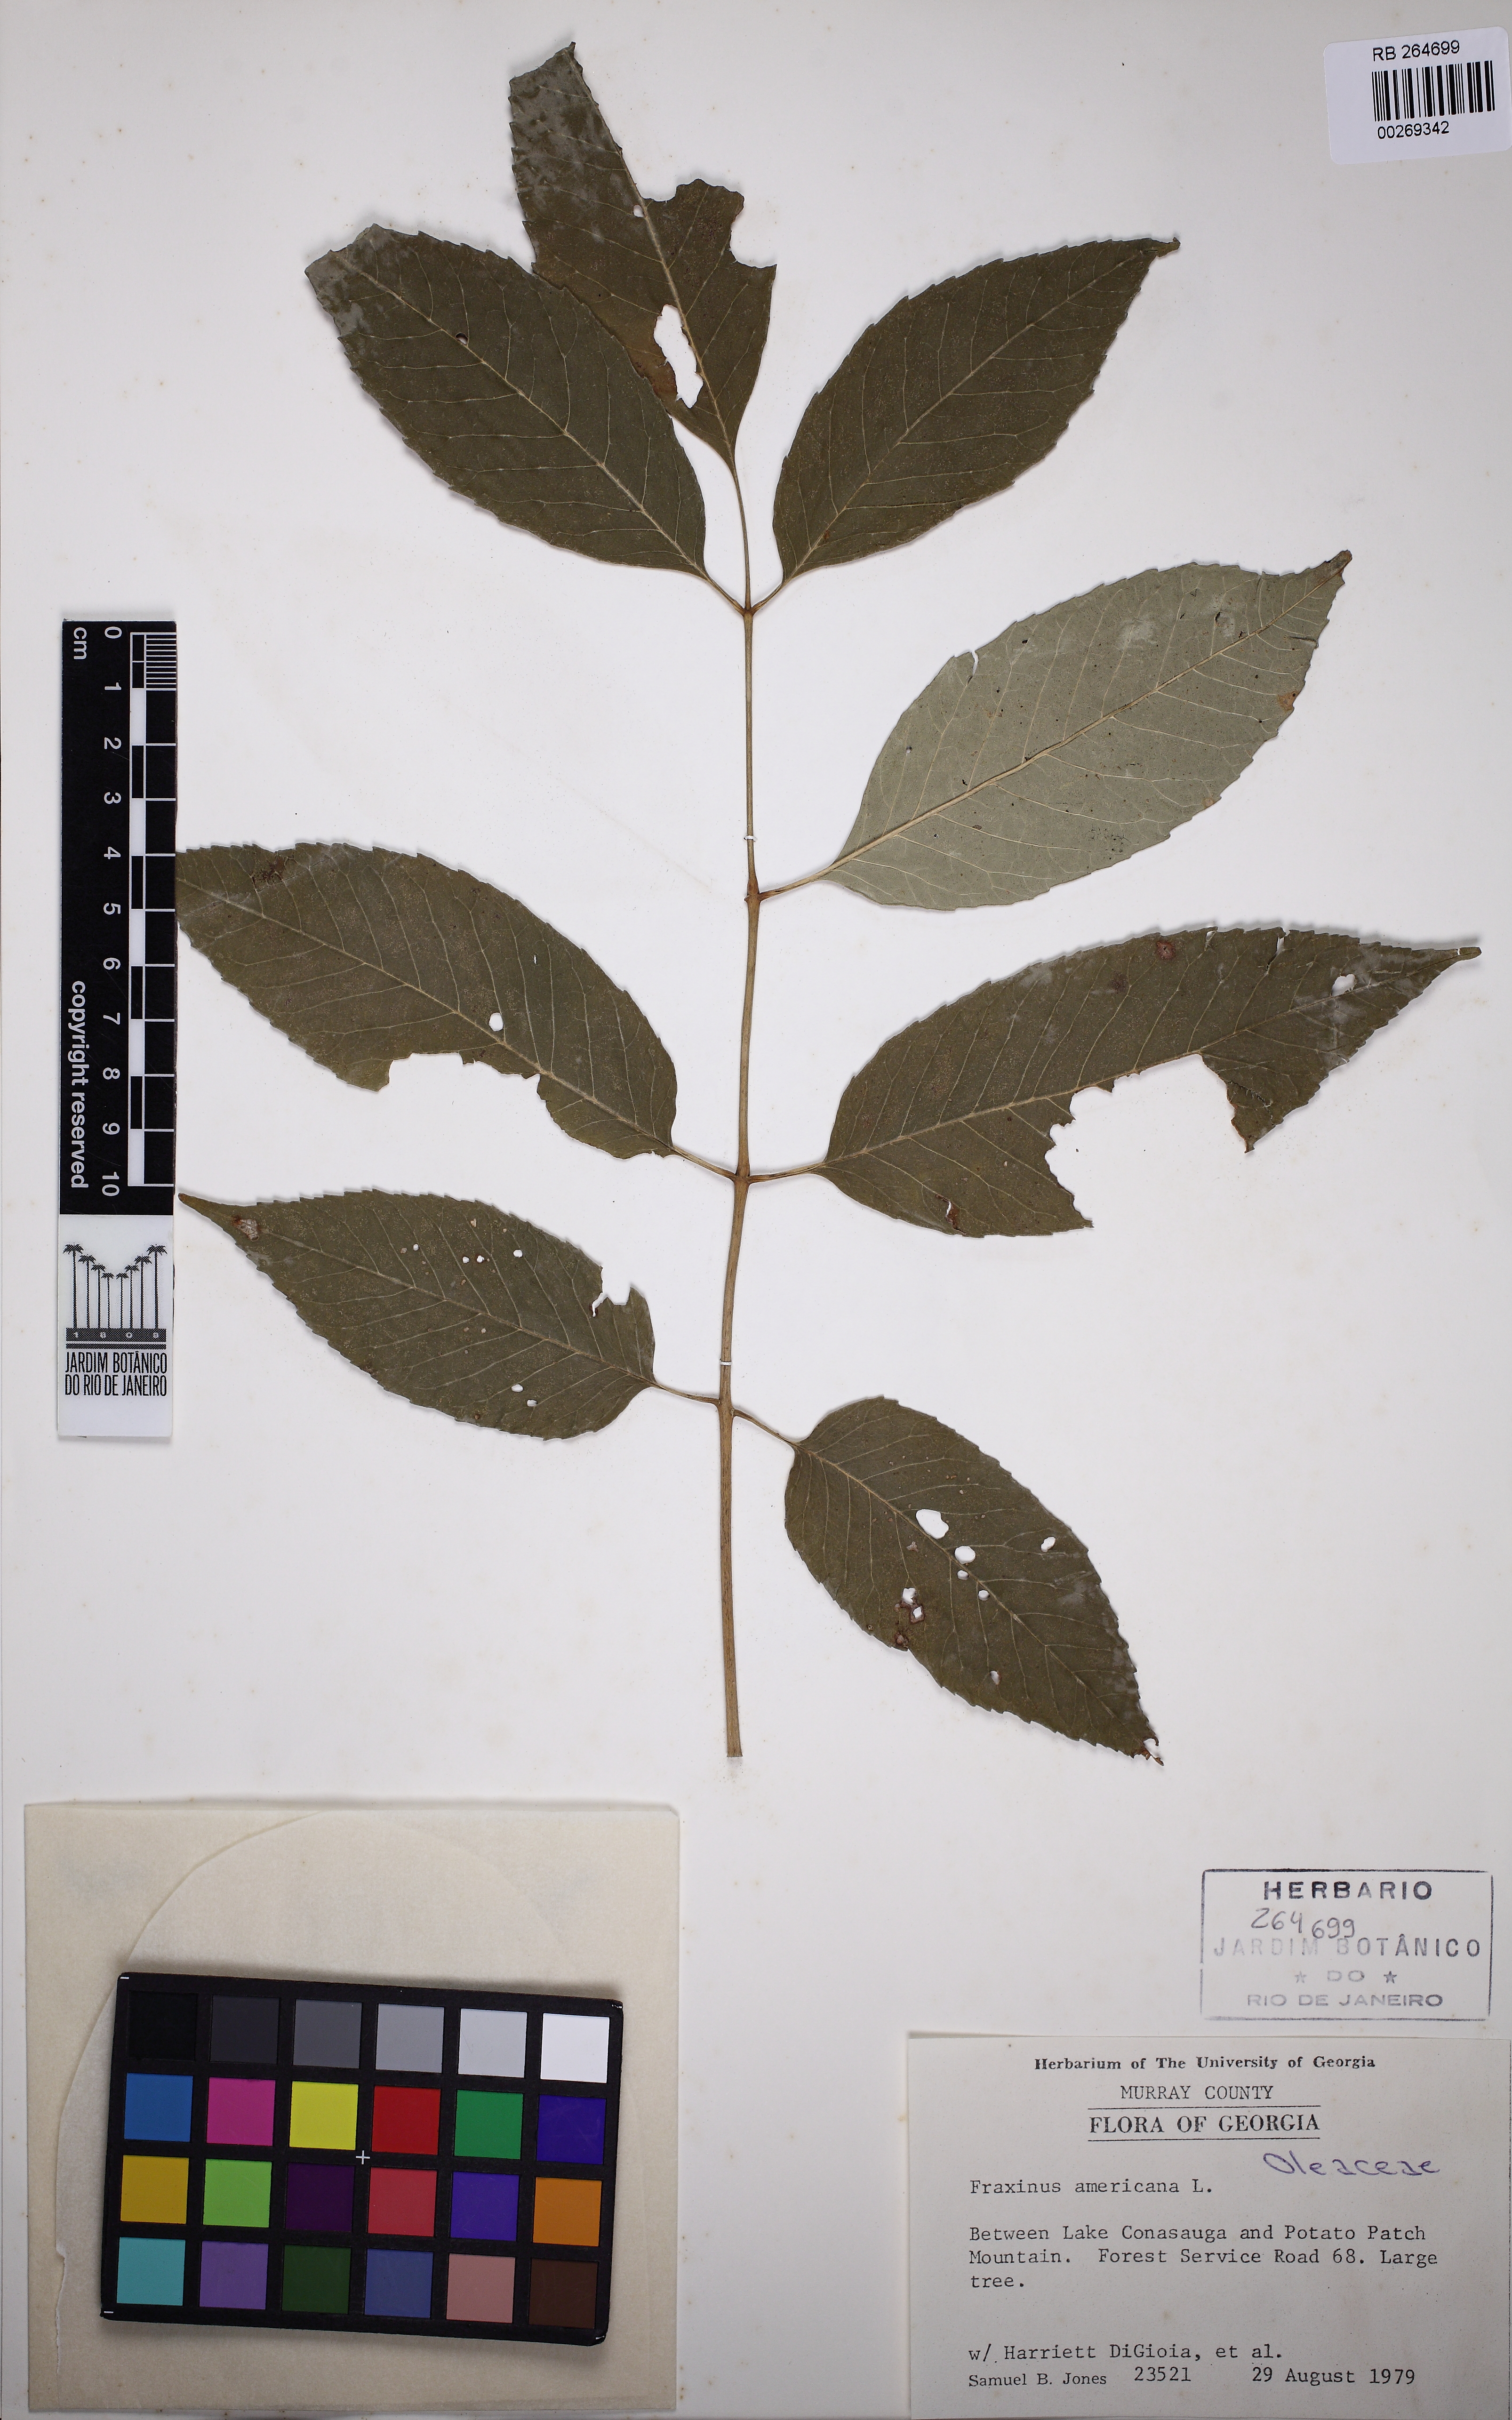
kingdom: Plantae
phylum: Tracheophyta
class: Magnoliopsida
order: Lamiales
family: Oleaceae
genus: Fraxinus
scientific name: Fraxinus americana
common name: White ash
